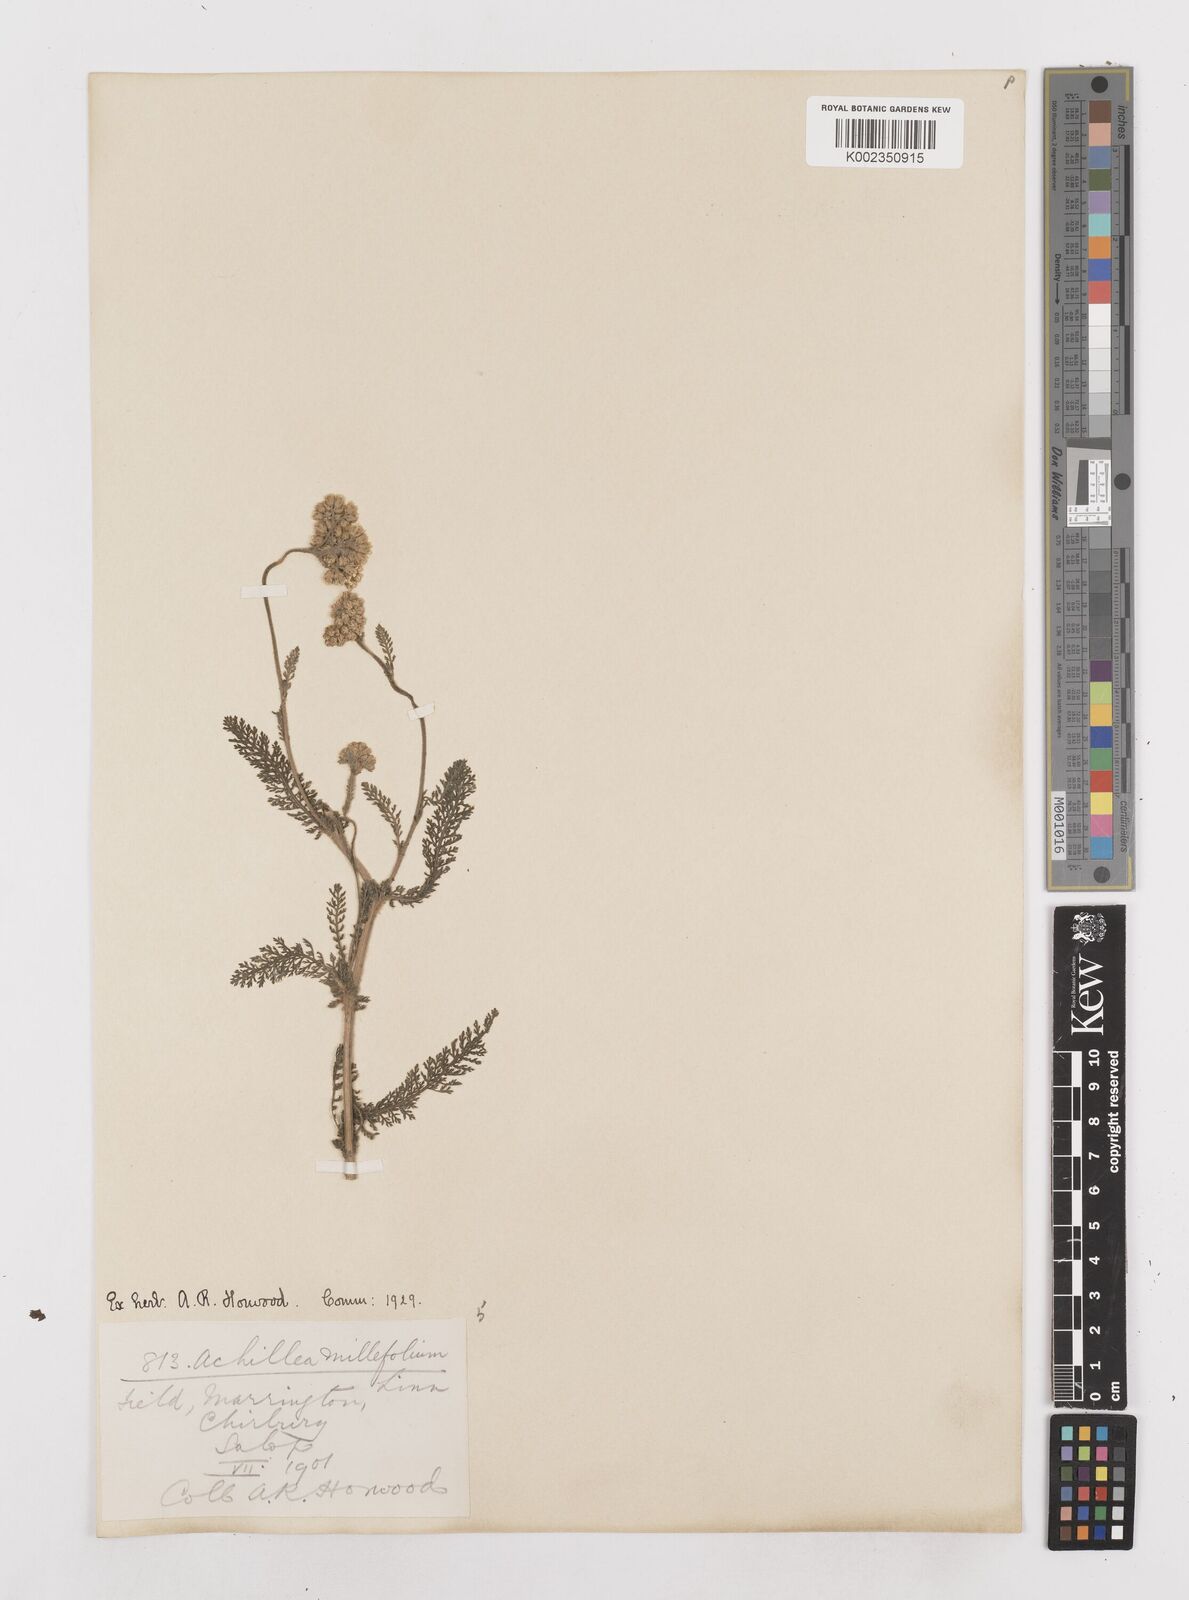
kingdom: Plantae
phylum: Tracheophyta
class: Magnoliopsida
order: Asterales
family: Asteraceae
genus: Achillea
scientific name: Achillea millefolium
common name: Yarrow
